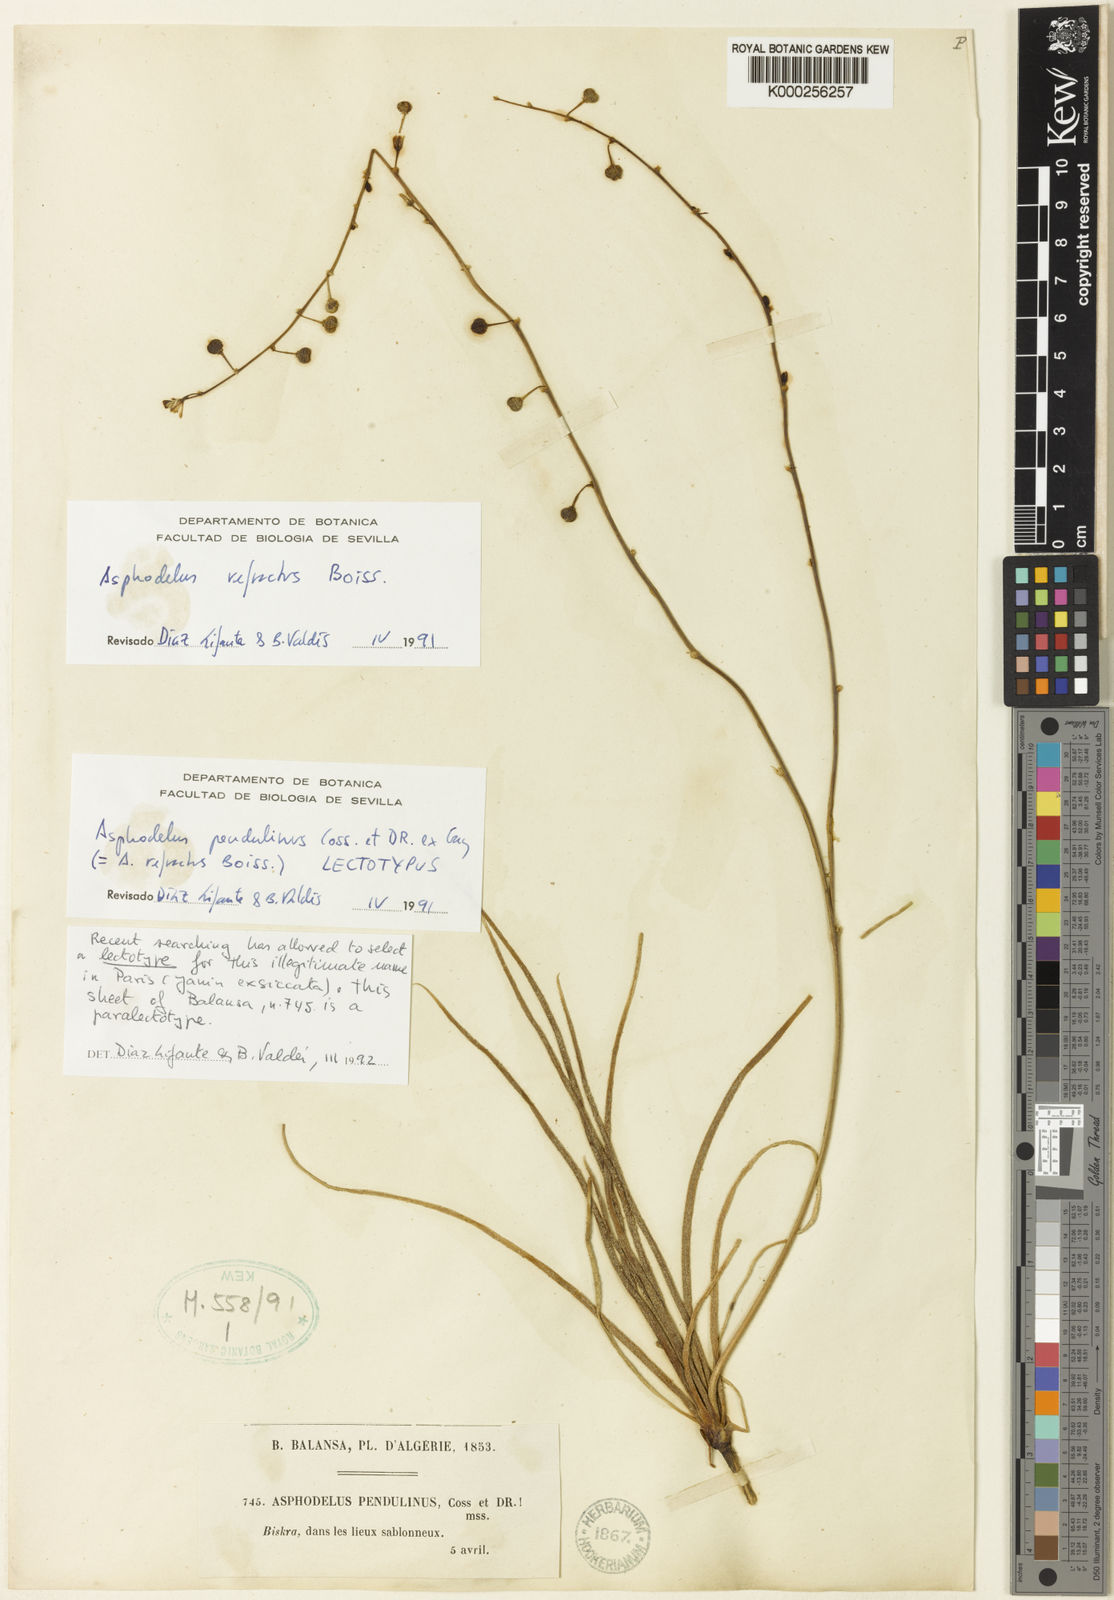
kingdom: Plantae
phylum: Tracheophyta
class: Liliopsida
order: Asparagales
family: Asphodelaceae
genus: Asphodelus
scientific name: Asphodelus refractus
